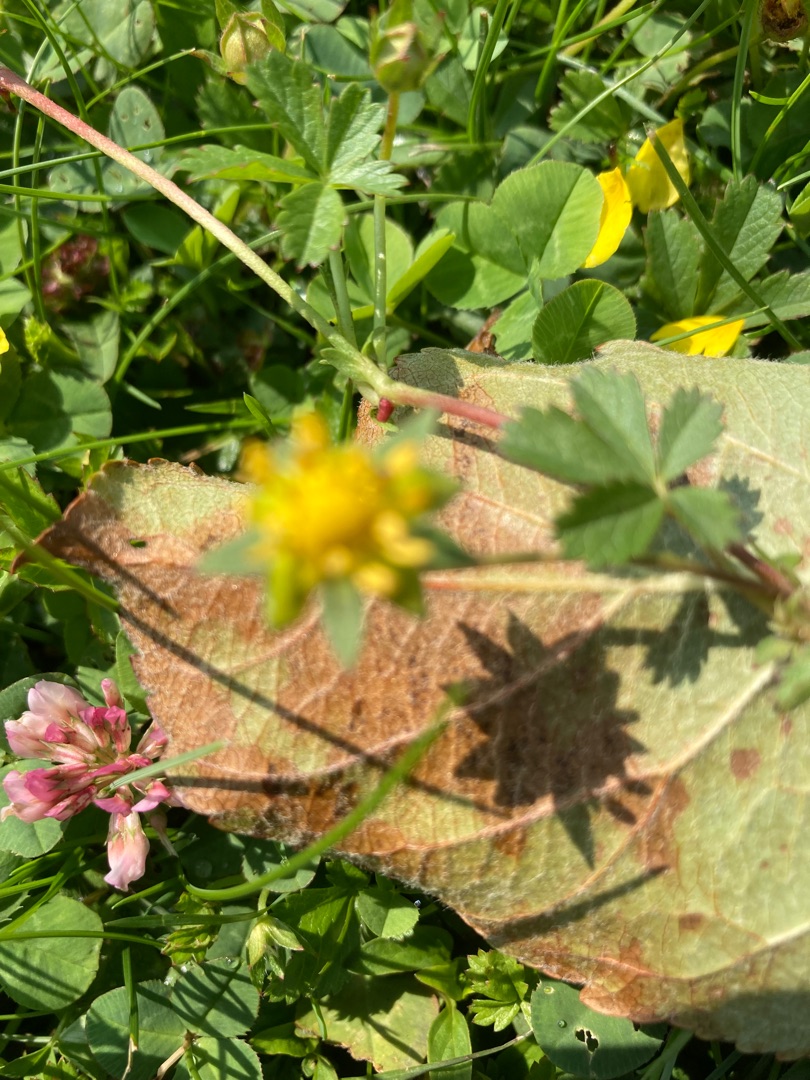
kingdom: Plantae
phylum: Tracheophyta
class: Magnoliopsida
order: Rosales
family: Rosaceae
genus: Potentilla
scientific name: Potentilla reptans
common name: Krybende potentil
